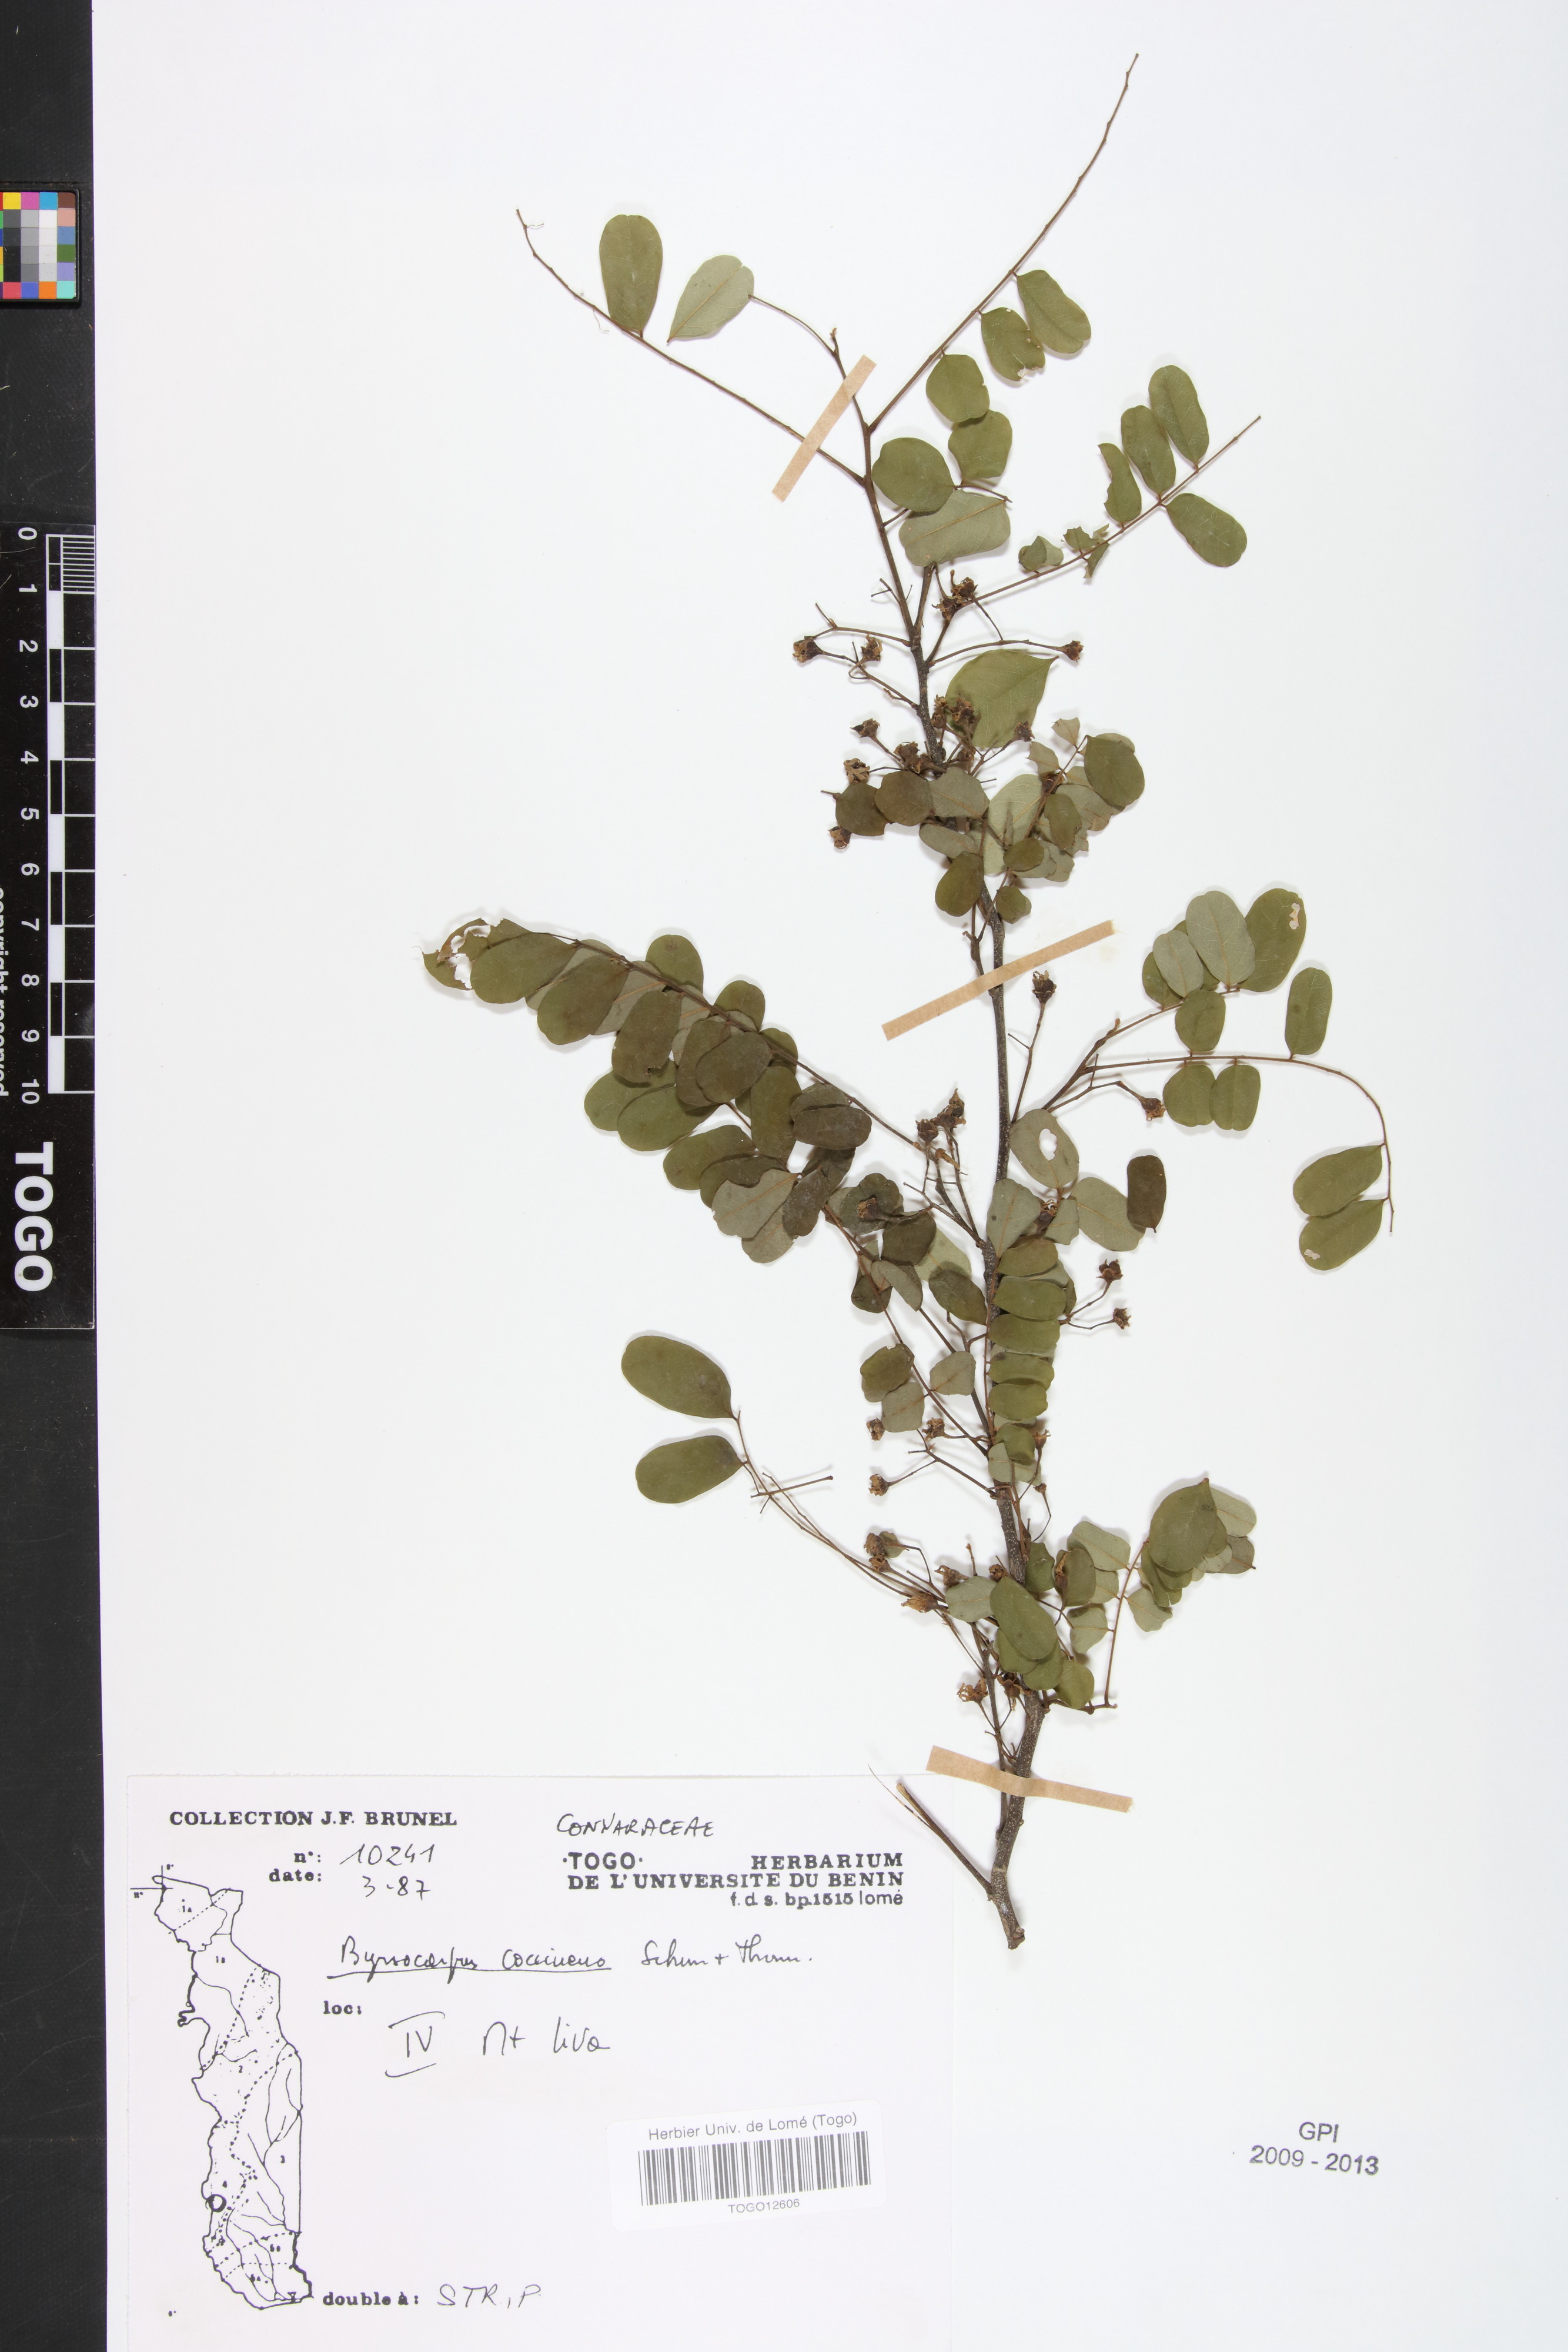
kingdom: Plantae
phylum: Tracheophyta
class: Magnoliopsida
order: Oxalidales
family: Connaraceae
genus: Rourea
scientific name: Rourea coccinea
